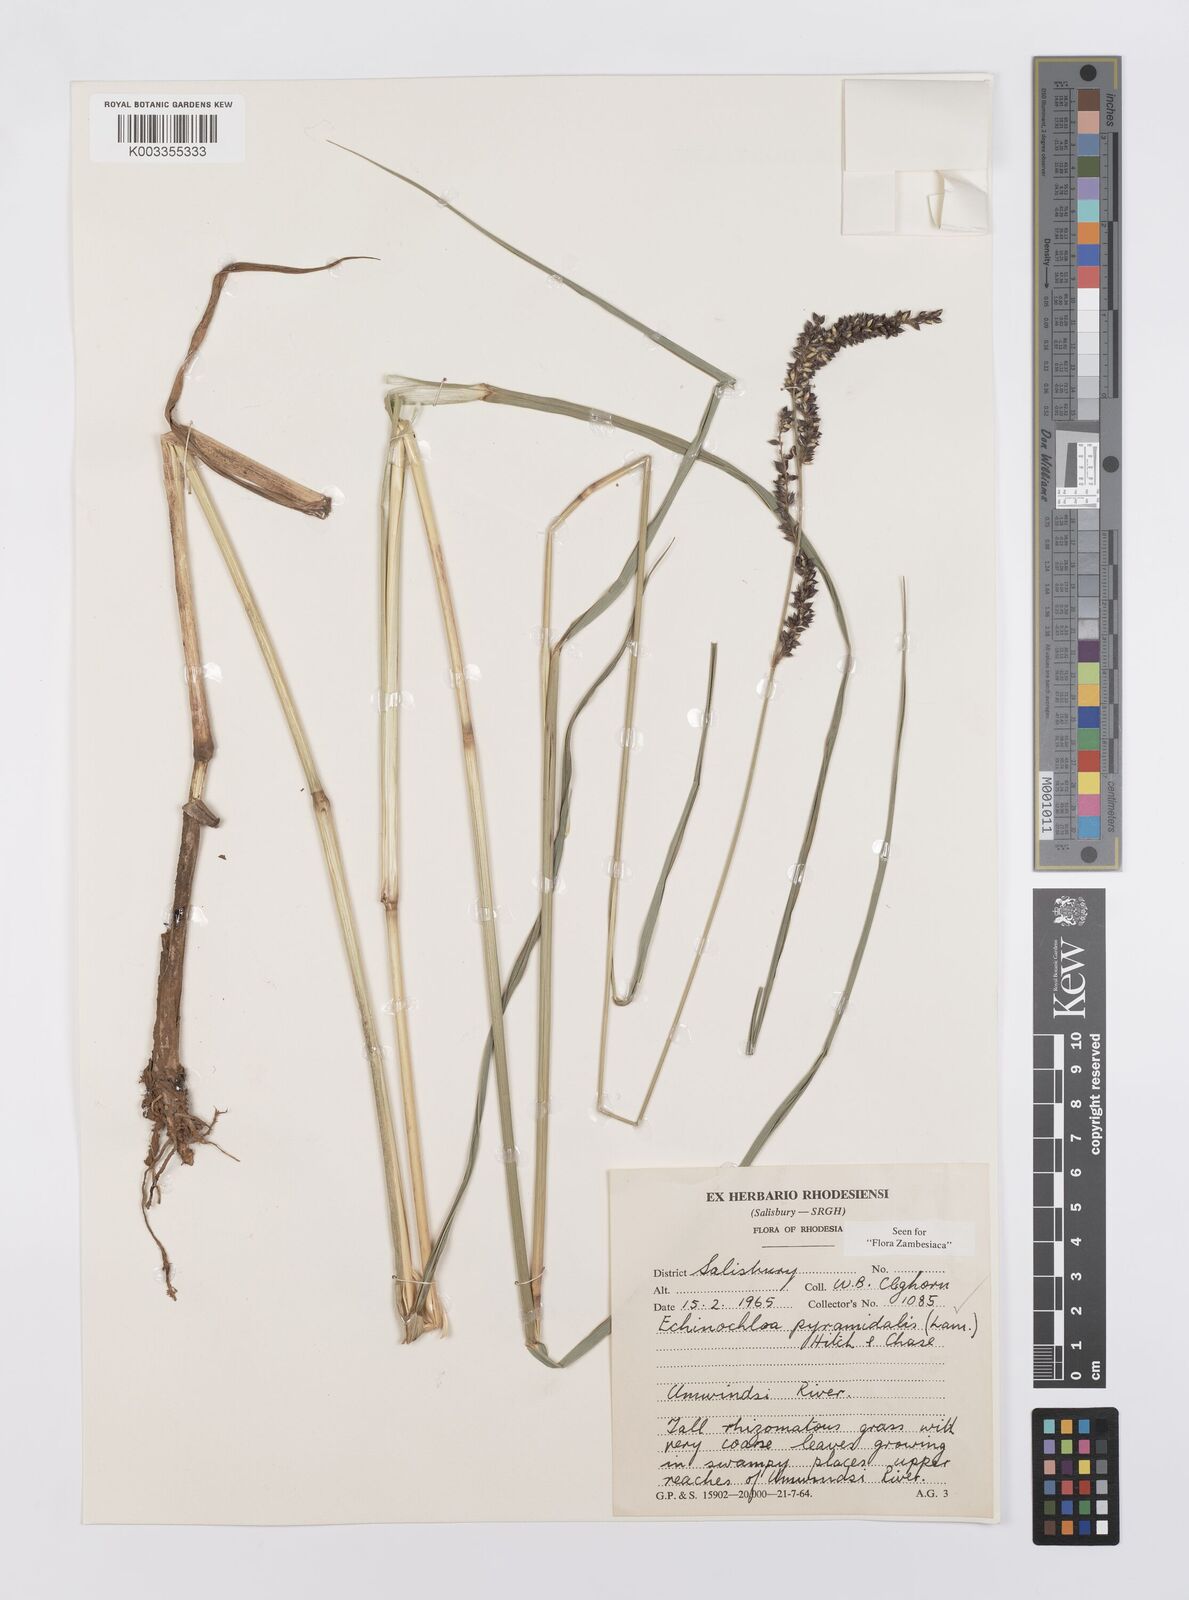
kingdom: Plantae
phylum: Tracheophyta
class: Liliopsida
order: Poales
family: Poaceae
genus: Echinochloa
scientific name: Echinochloa pyramidalis
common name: Antelope grass
